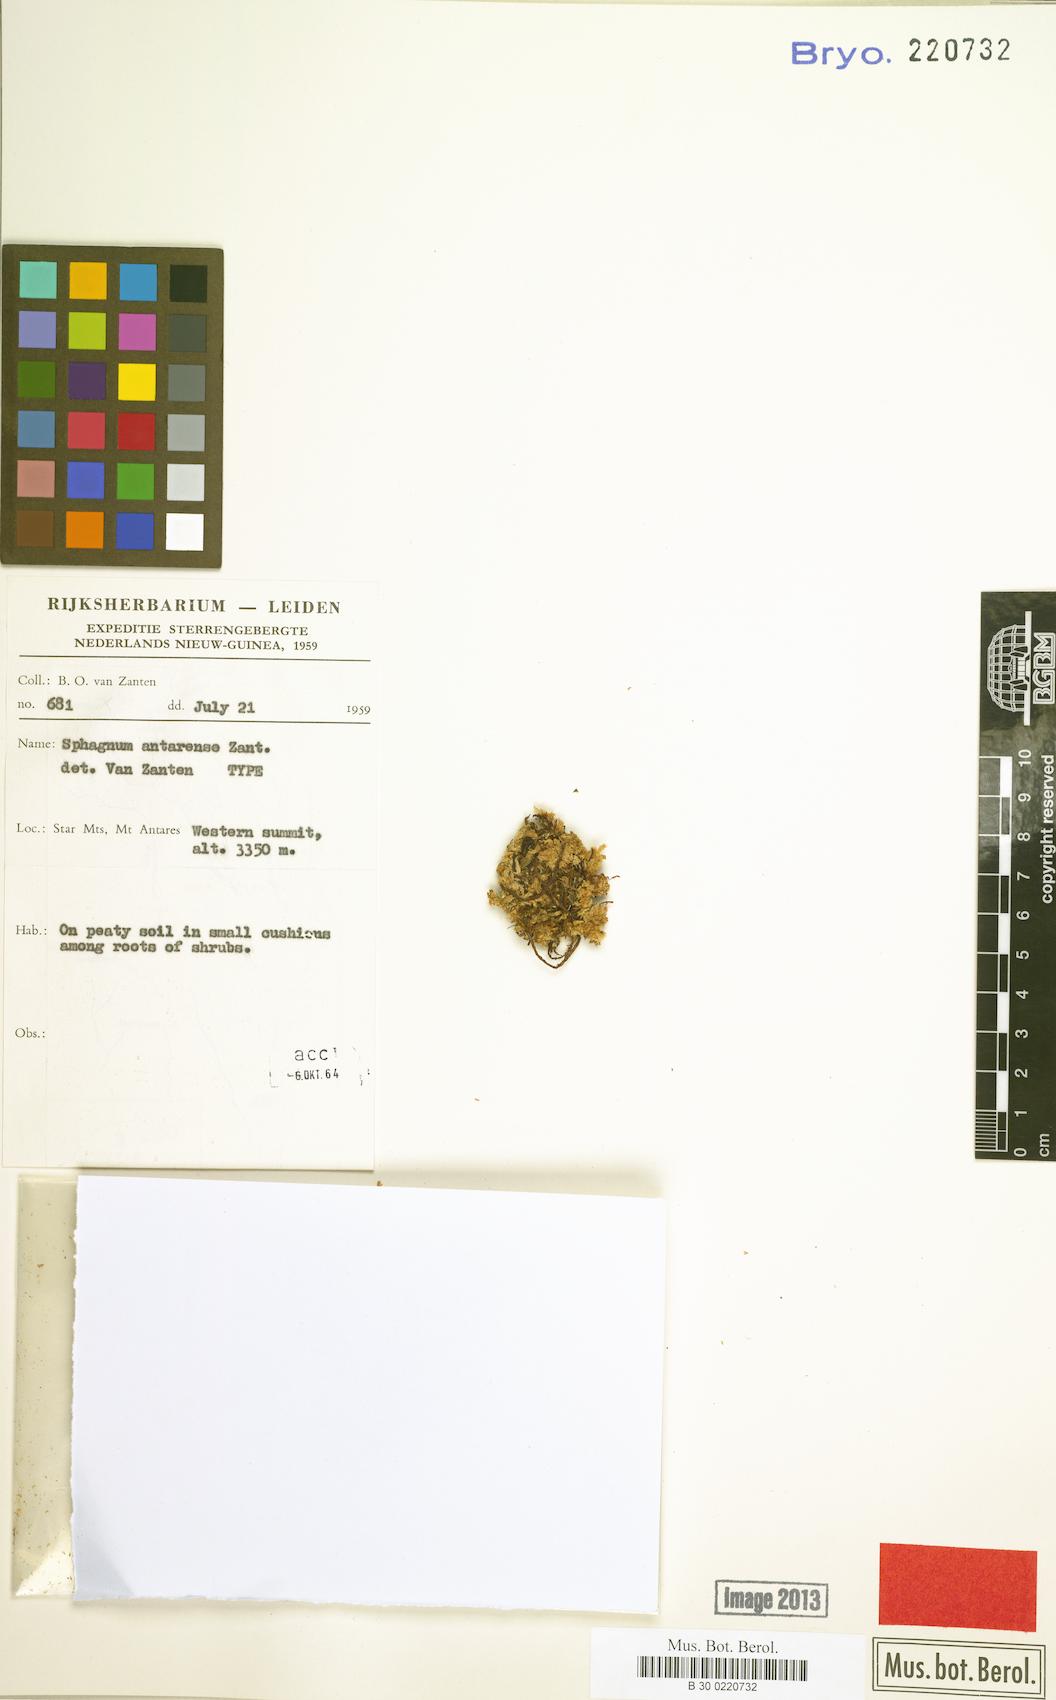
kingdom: Plantae
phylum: Bryophyta
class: Sphagnopsida
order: Sphagnales
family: Sphagnaceae
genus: Sphagnum
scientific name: Sphagnum antarense
